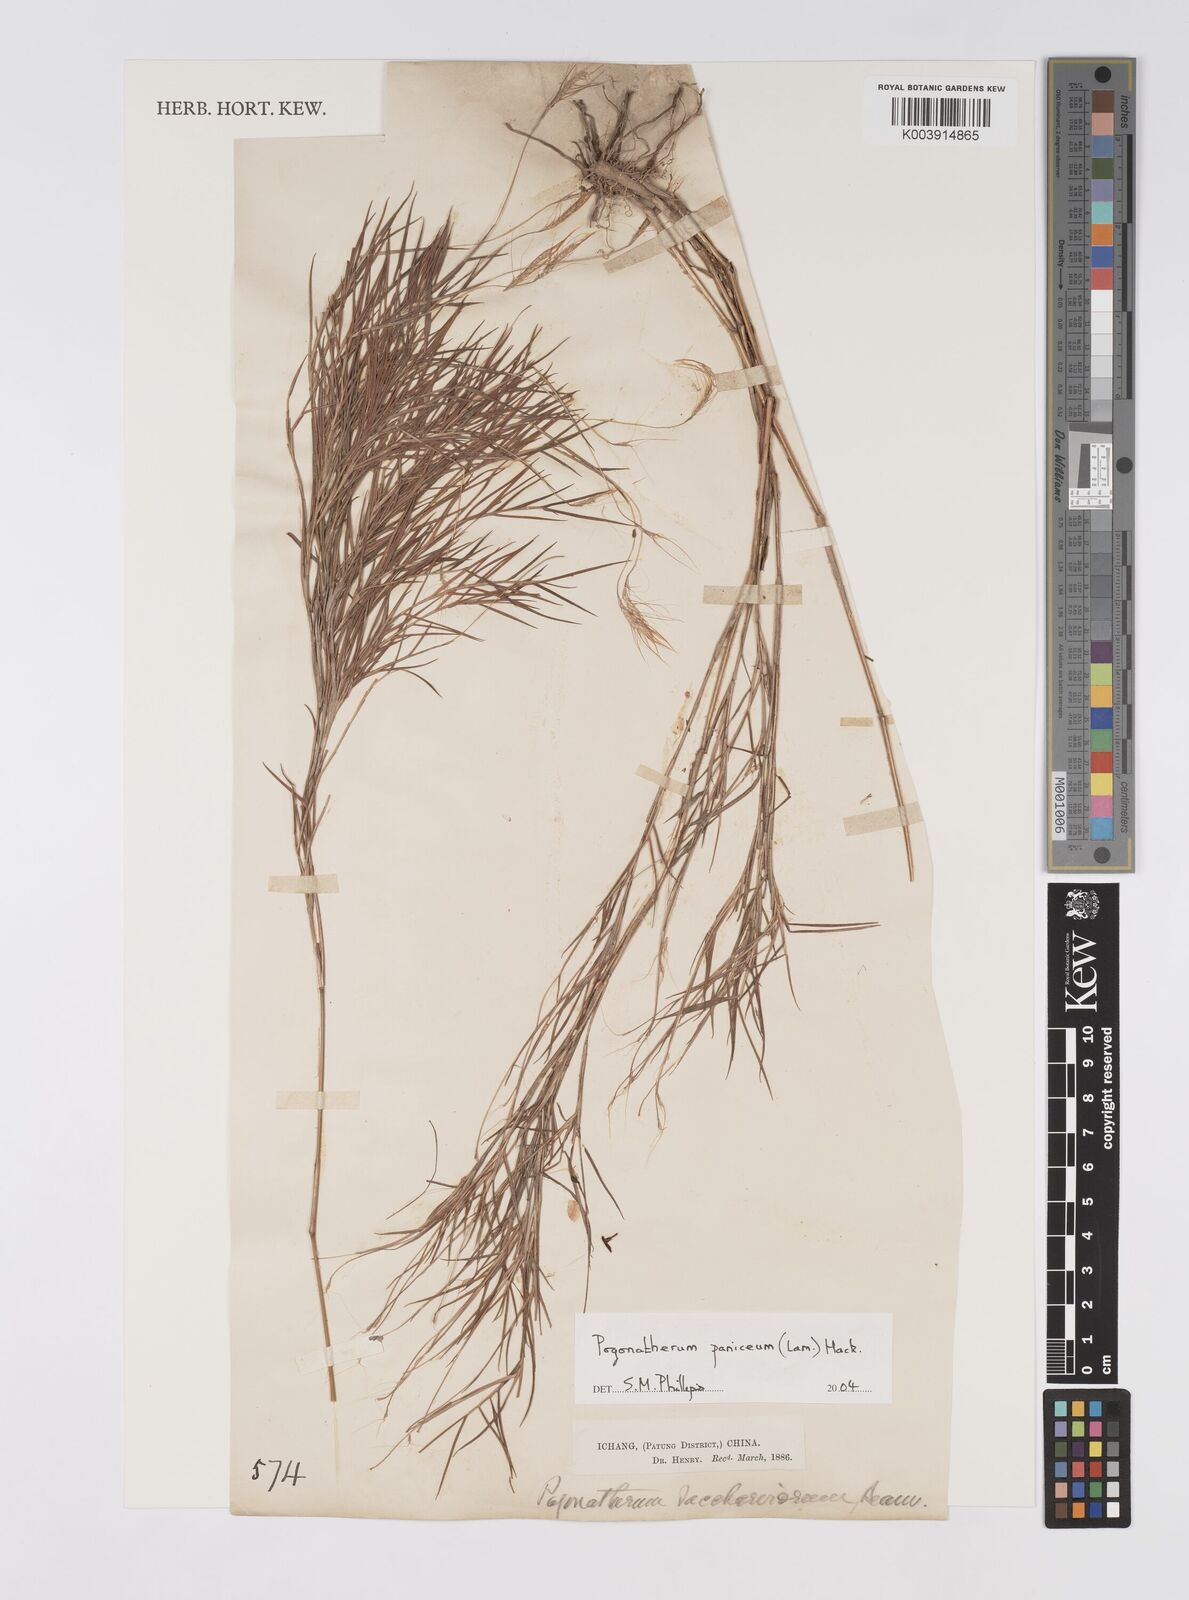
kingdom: Plantae
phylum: Tracheophyta
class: Liliopsida
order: Poales
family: Poaceae
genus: Pogonatherum
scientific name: Pogonatherum paniceum
